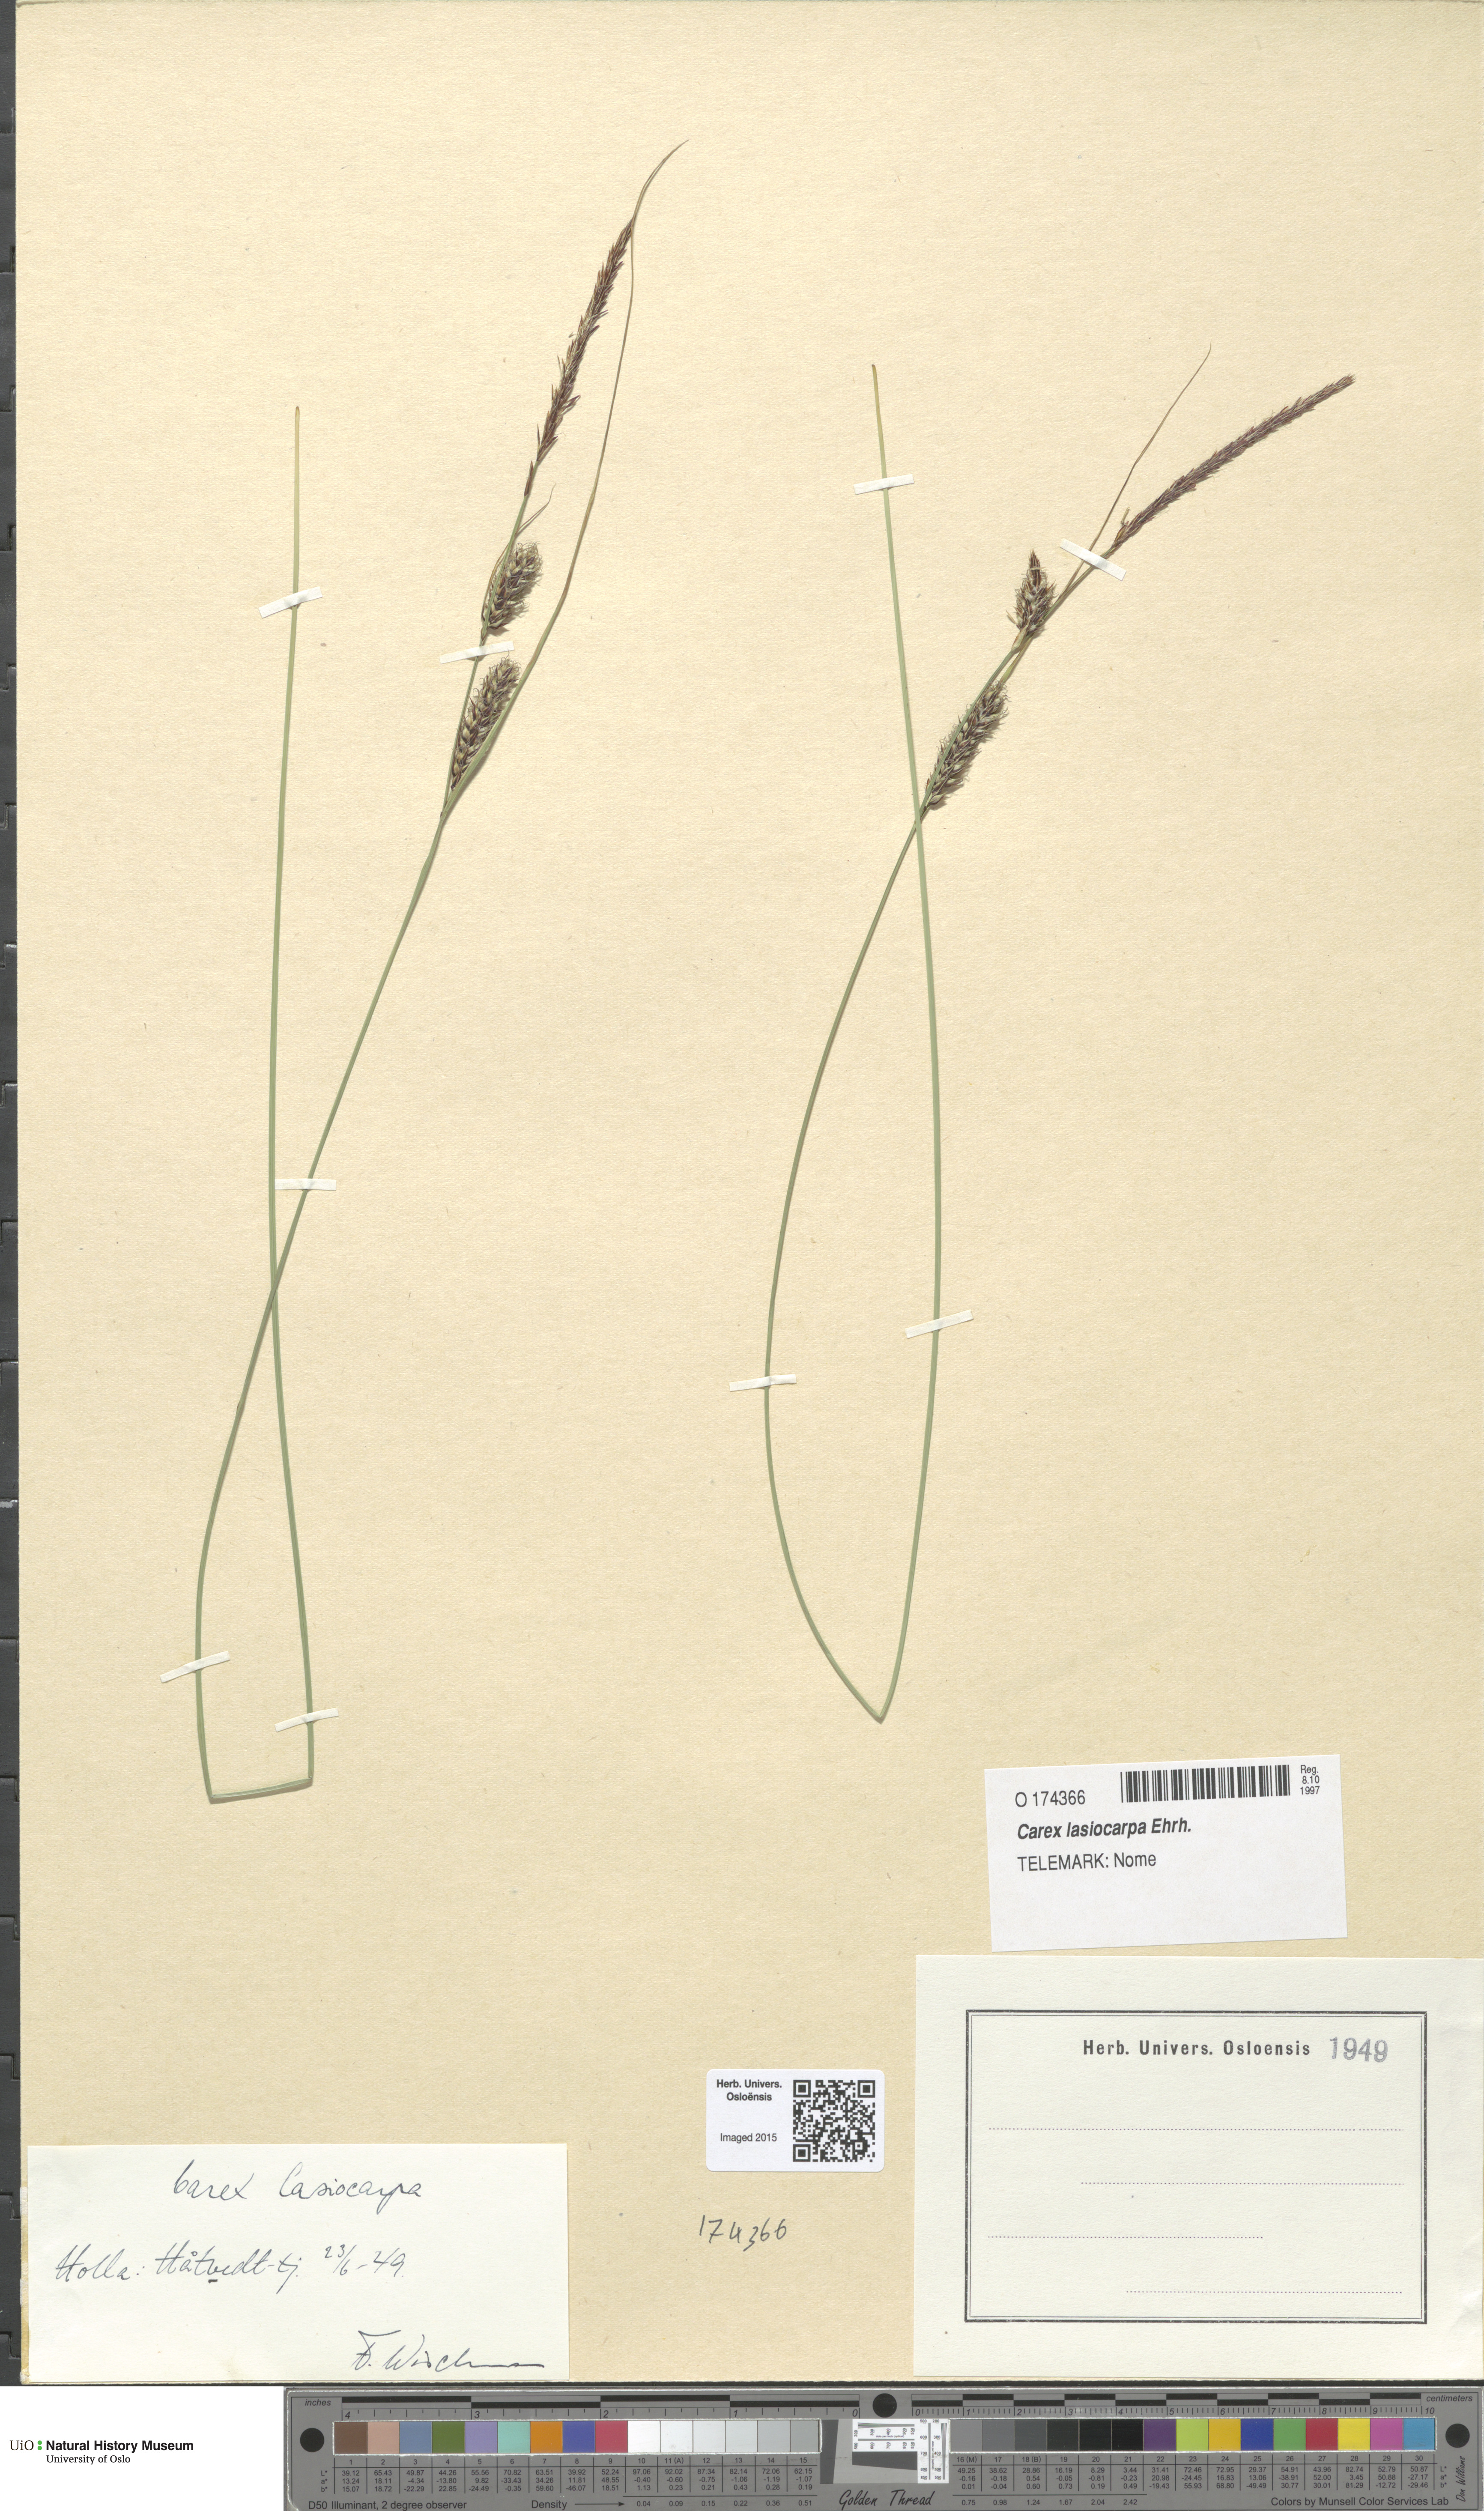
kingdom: Plantae
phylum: Tracheophyta
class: Liliopsida
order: Poales
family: Cyperaceae
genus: Carex
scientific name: Carex lasiocarpa
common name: Slender sedge
